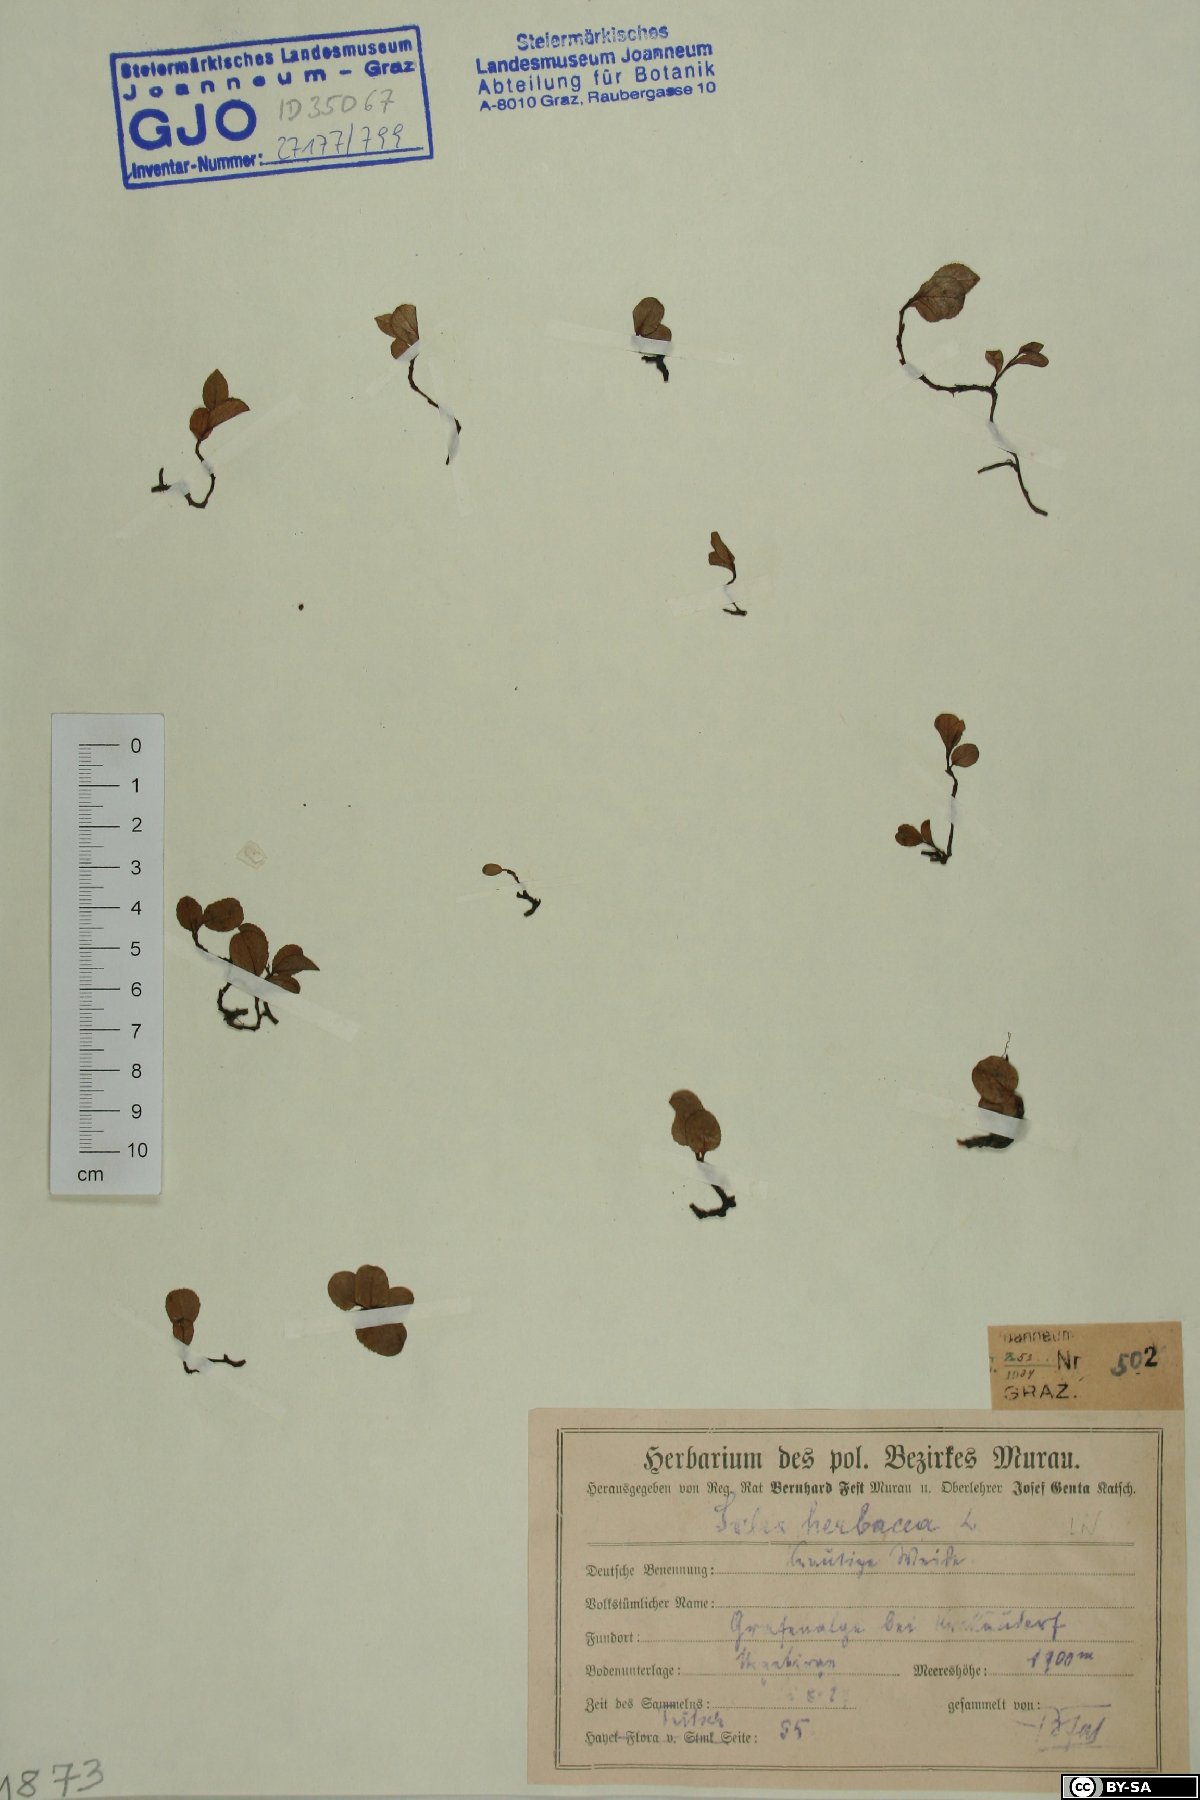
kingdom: Plantae
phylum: Tracheophyta
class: Magnoliopsida
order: Malpighiales
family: Salicaceae
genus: Salix
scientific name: Salix herbacea
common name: Dwarf willow
